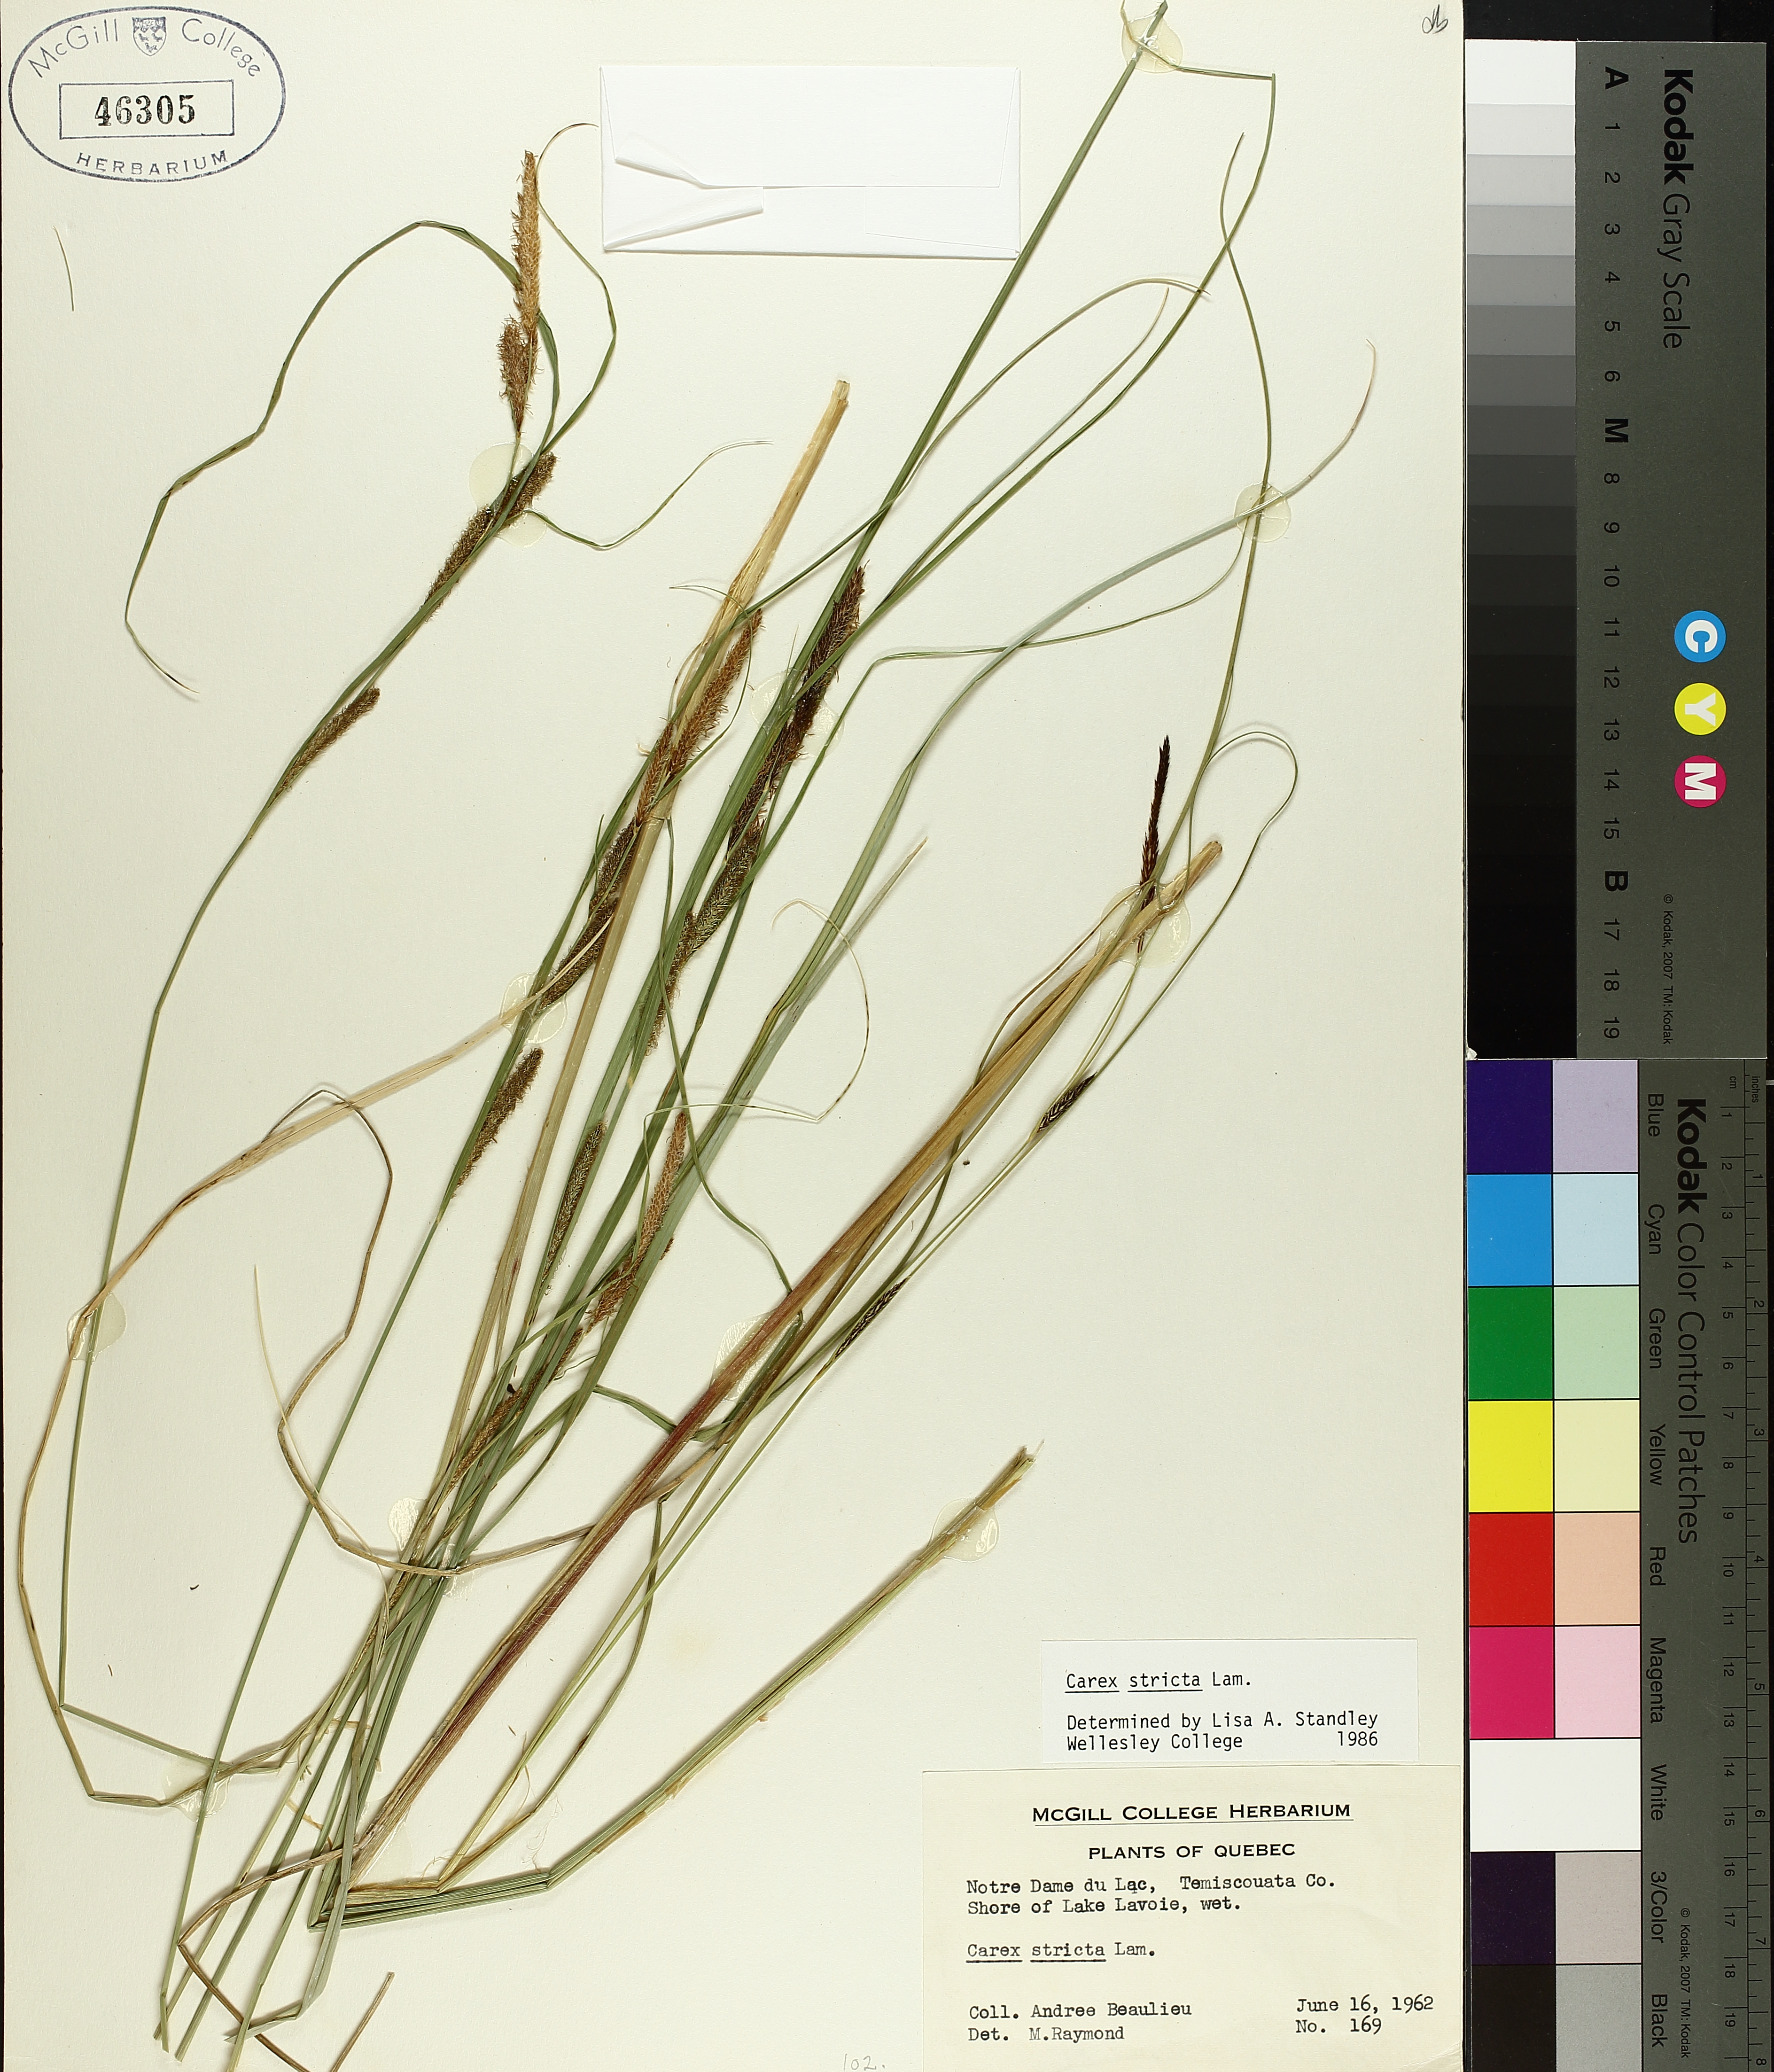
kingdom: Plantae
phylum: Tracheophyta
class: Liliopsida
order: Poales
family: Cyperaceae
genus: Carex
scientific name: Carex stricta
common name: Hummock sedge
